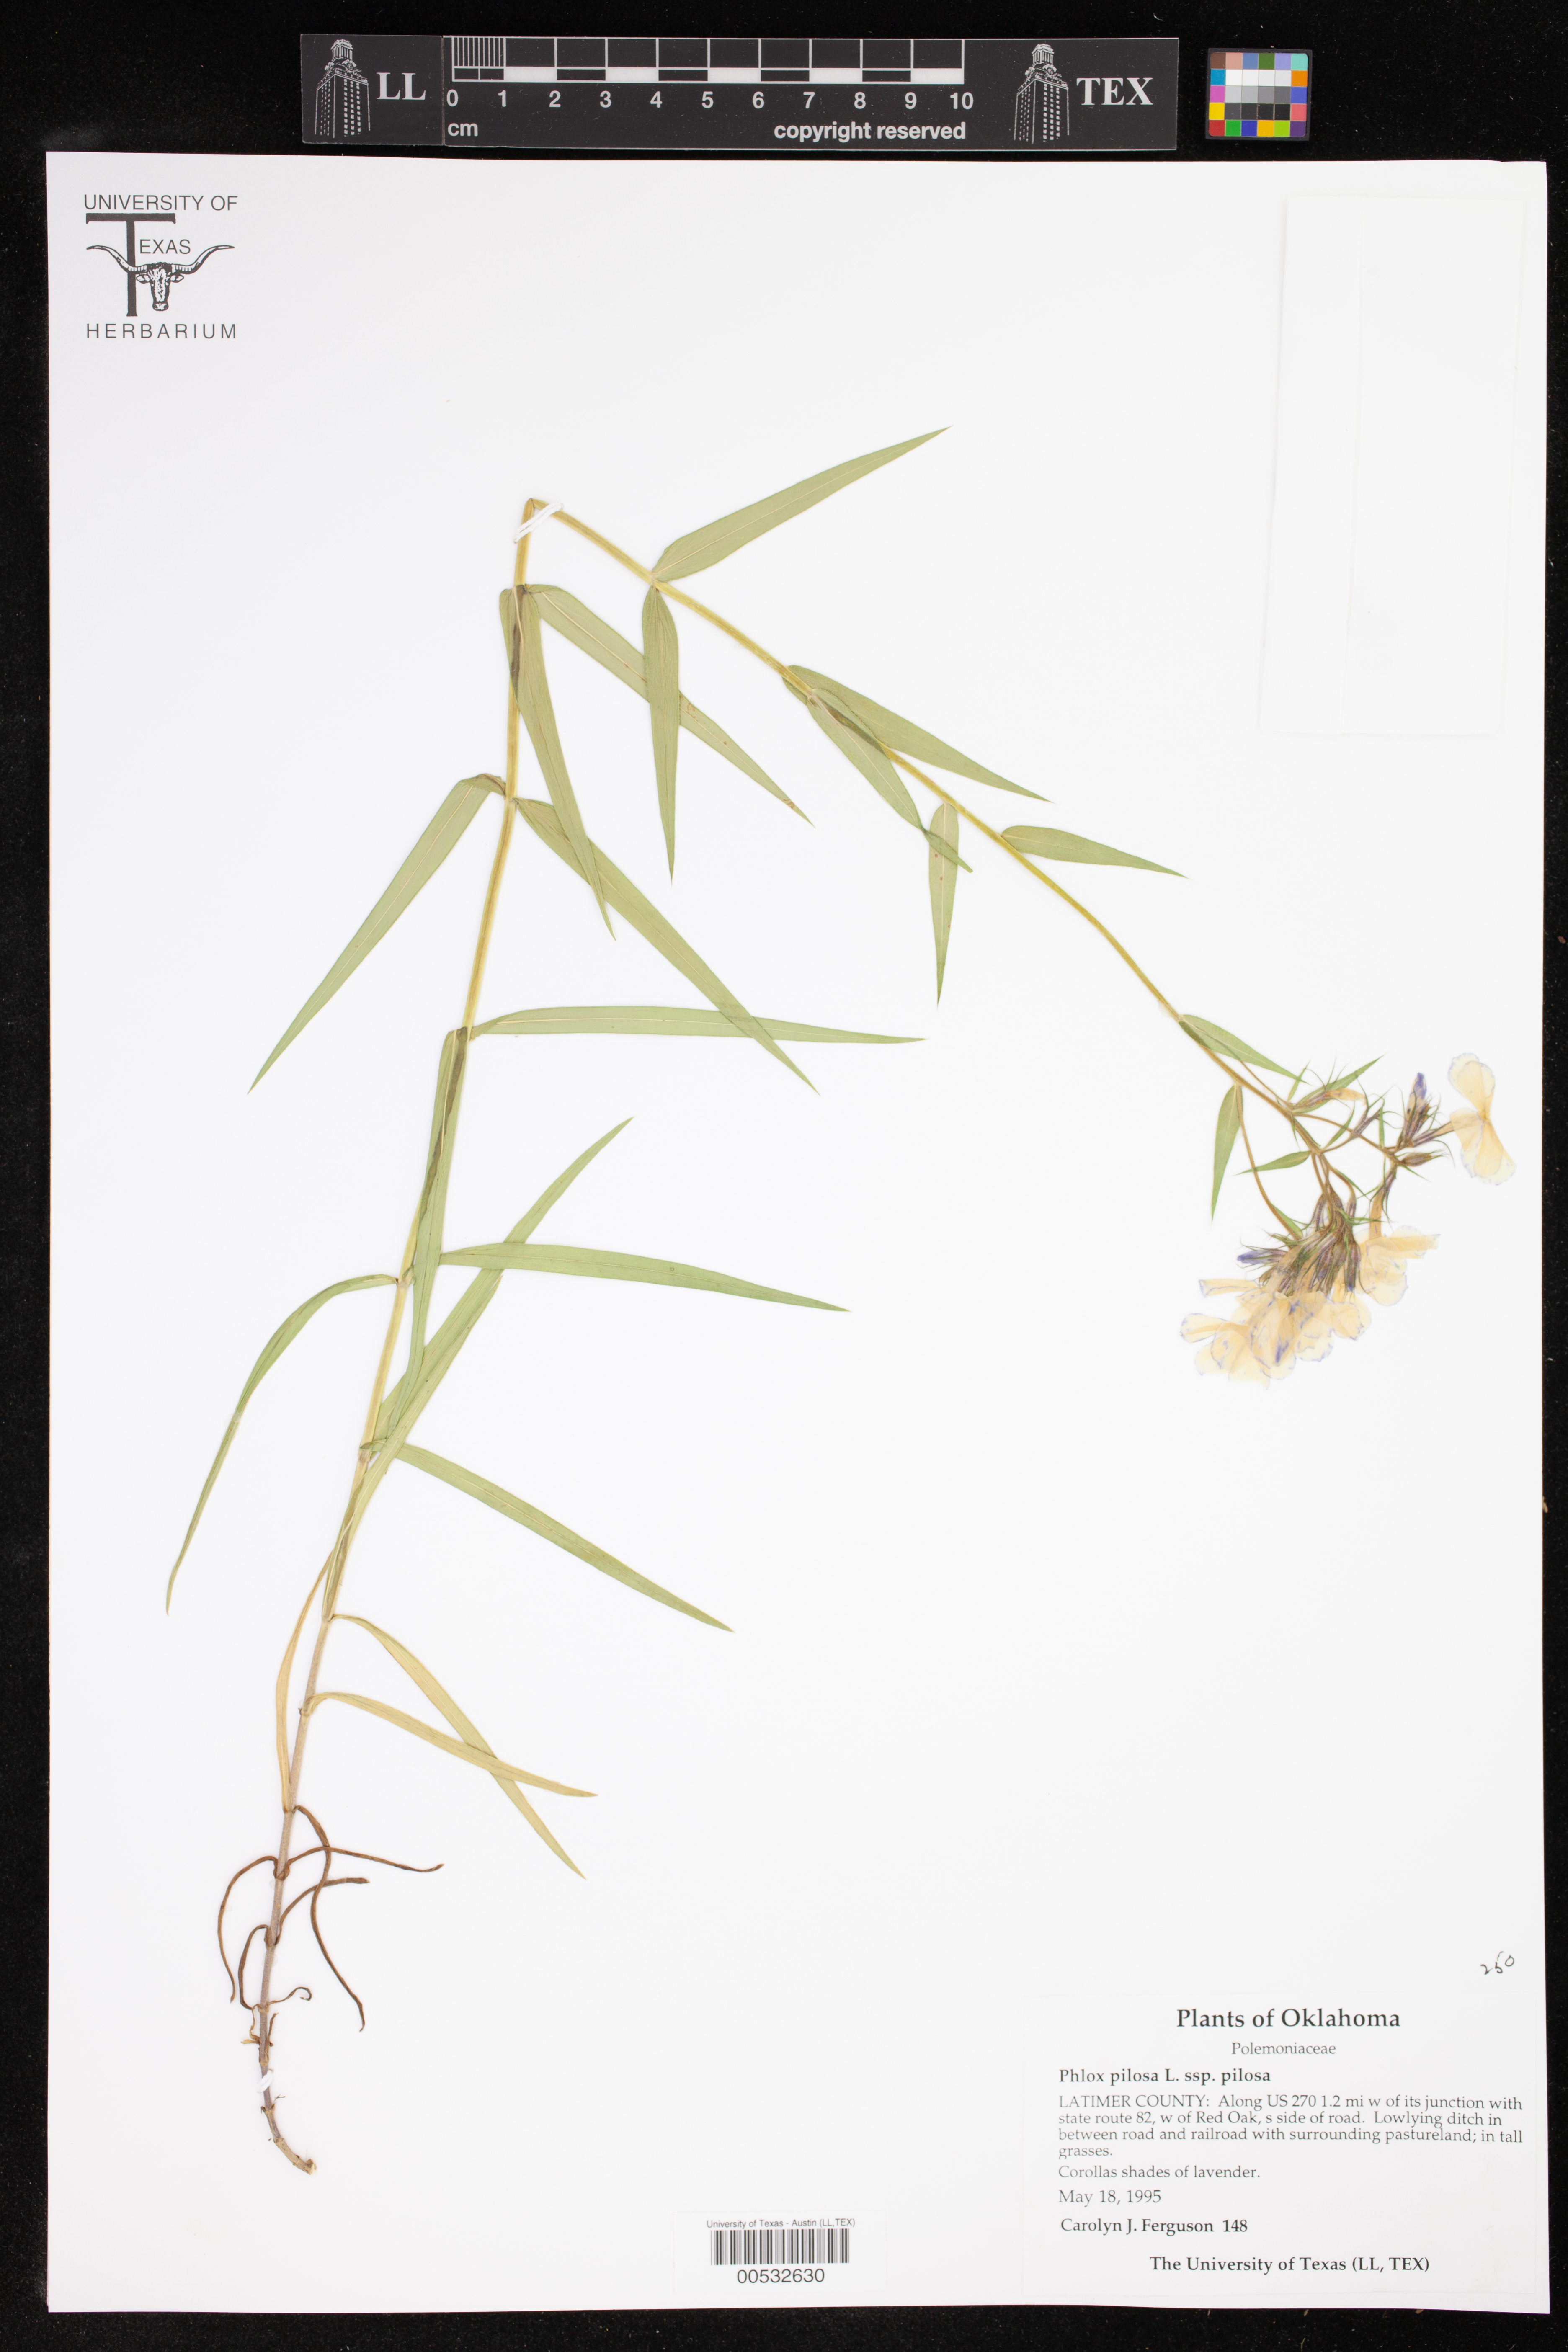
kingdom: Plantae
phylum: Tracheophyta
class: Magnoliopsida
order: Ericales
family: Polemoniaceae
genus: Phlox
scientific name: Phlox pilosa
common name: Prairie phlox
